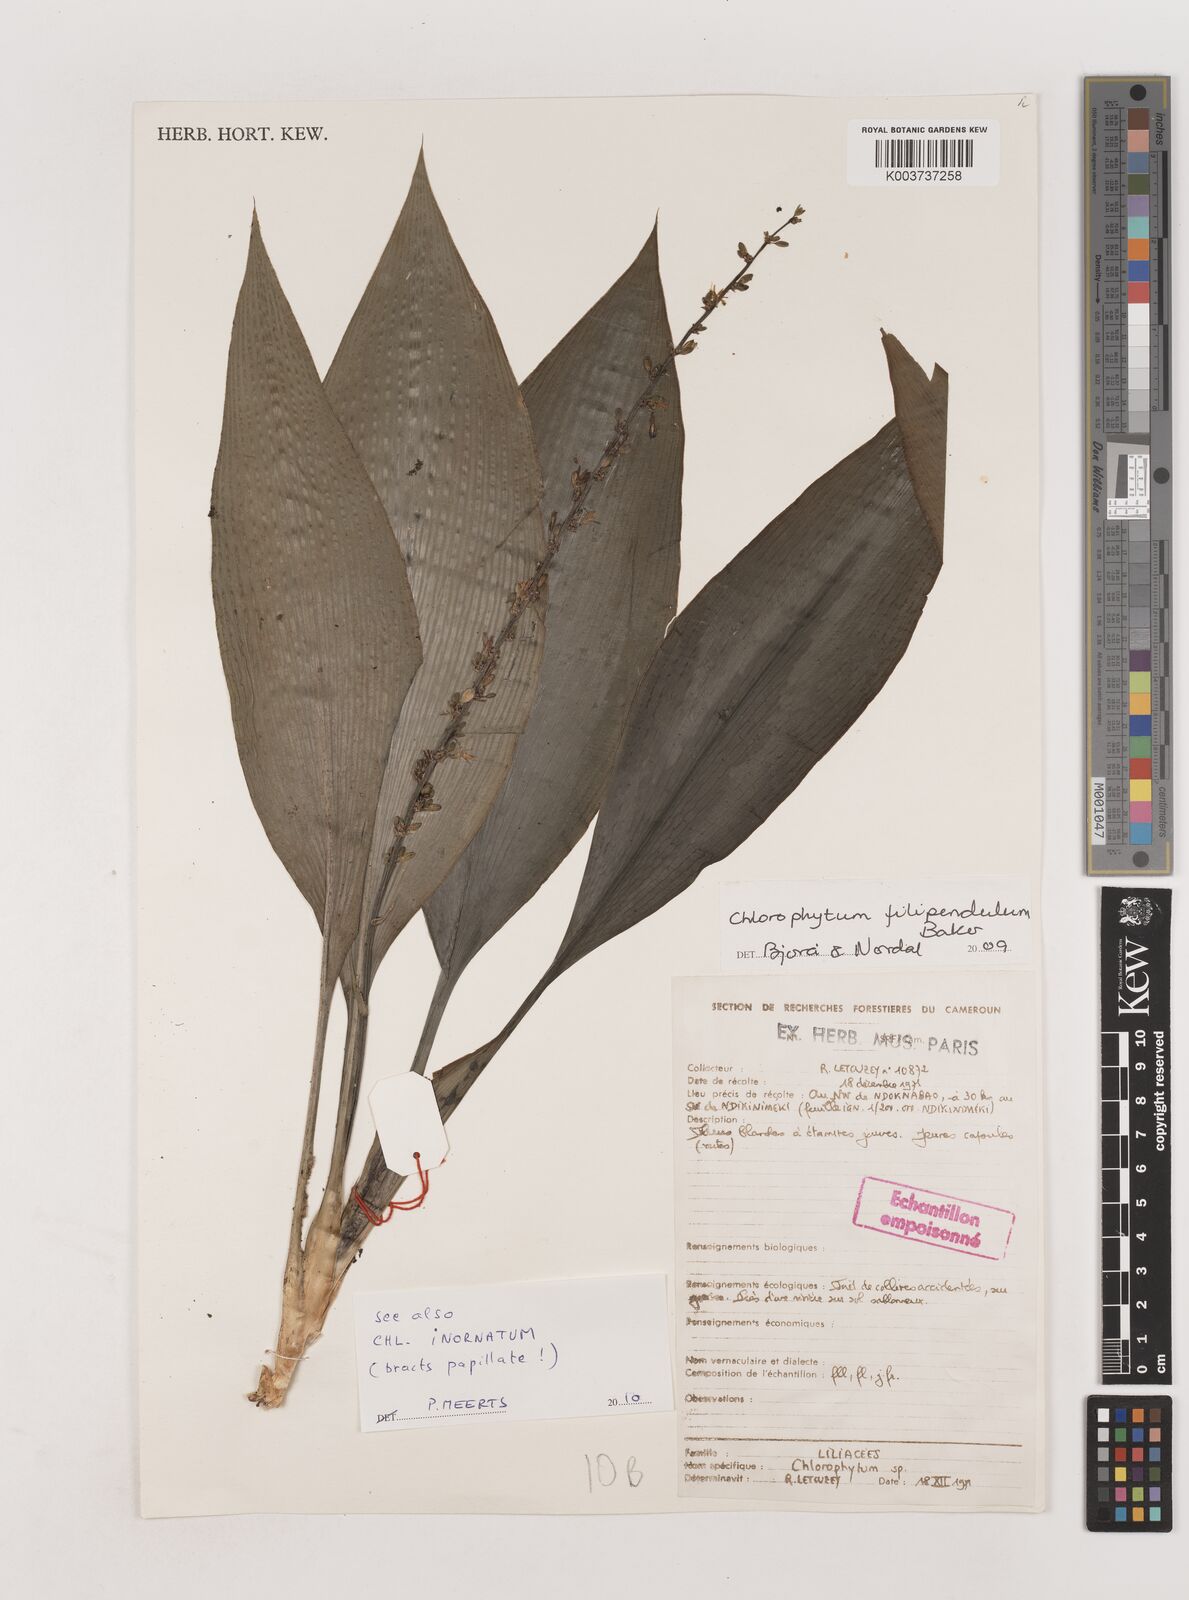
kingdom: Plantae
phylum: Tracheophyta
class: Liliopsida
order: Asparagales
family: Asparagaceae
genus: Chlorophytum
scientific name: Chlorophytum filipendulum
